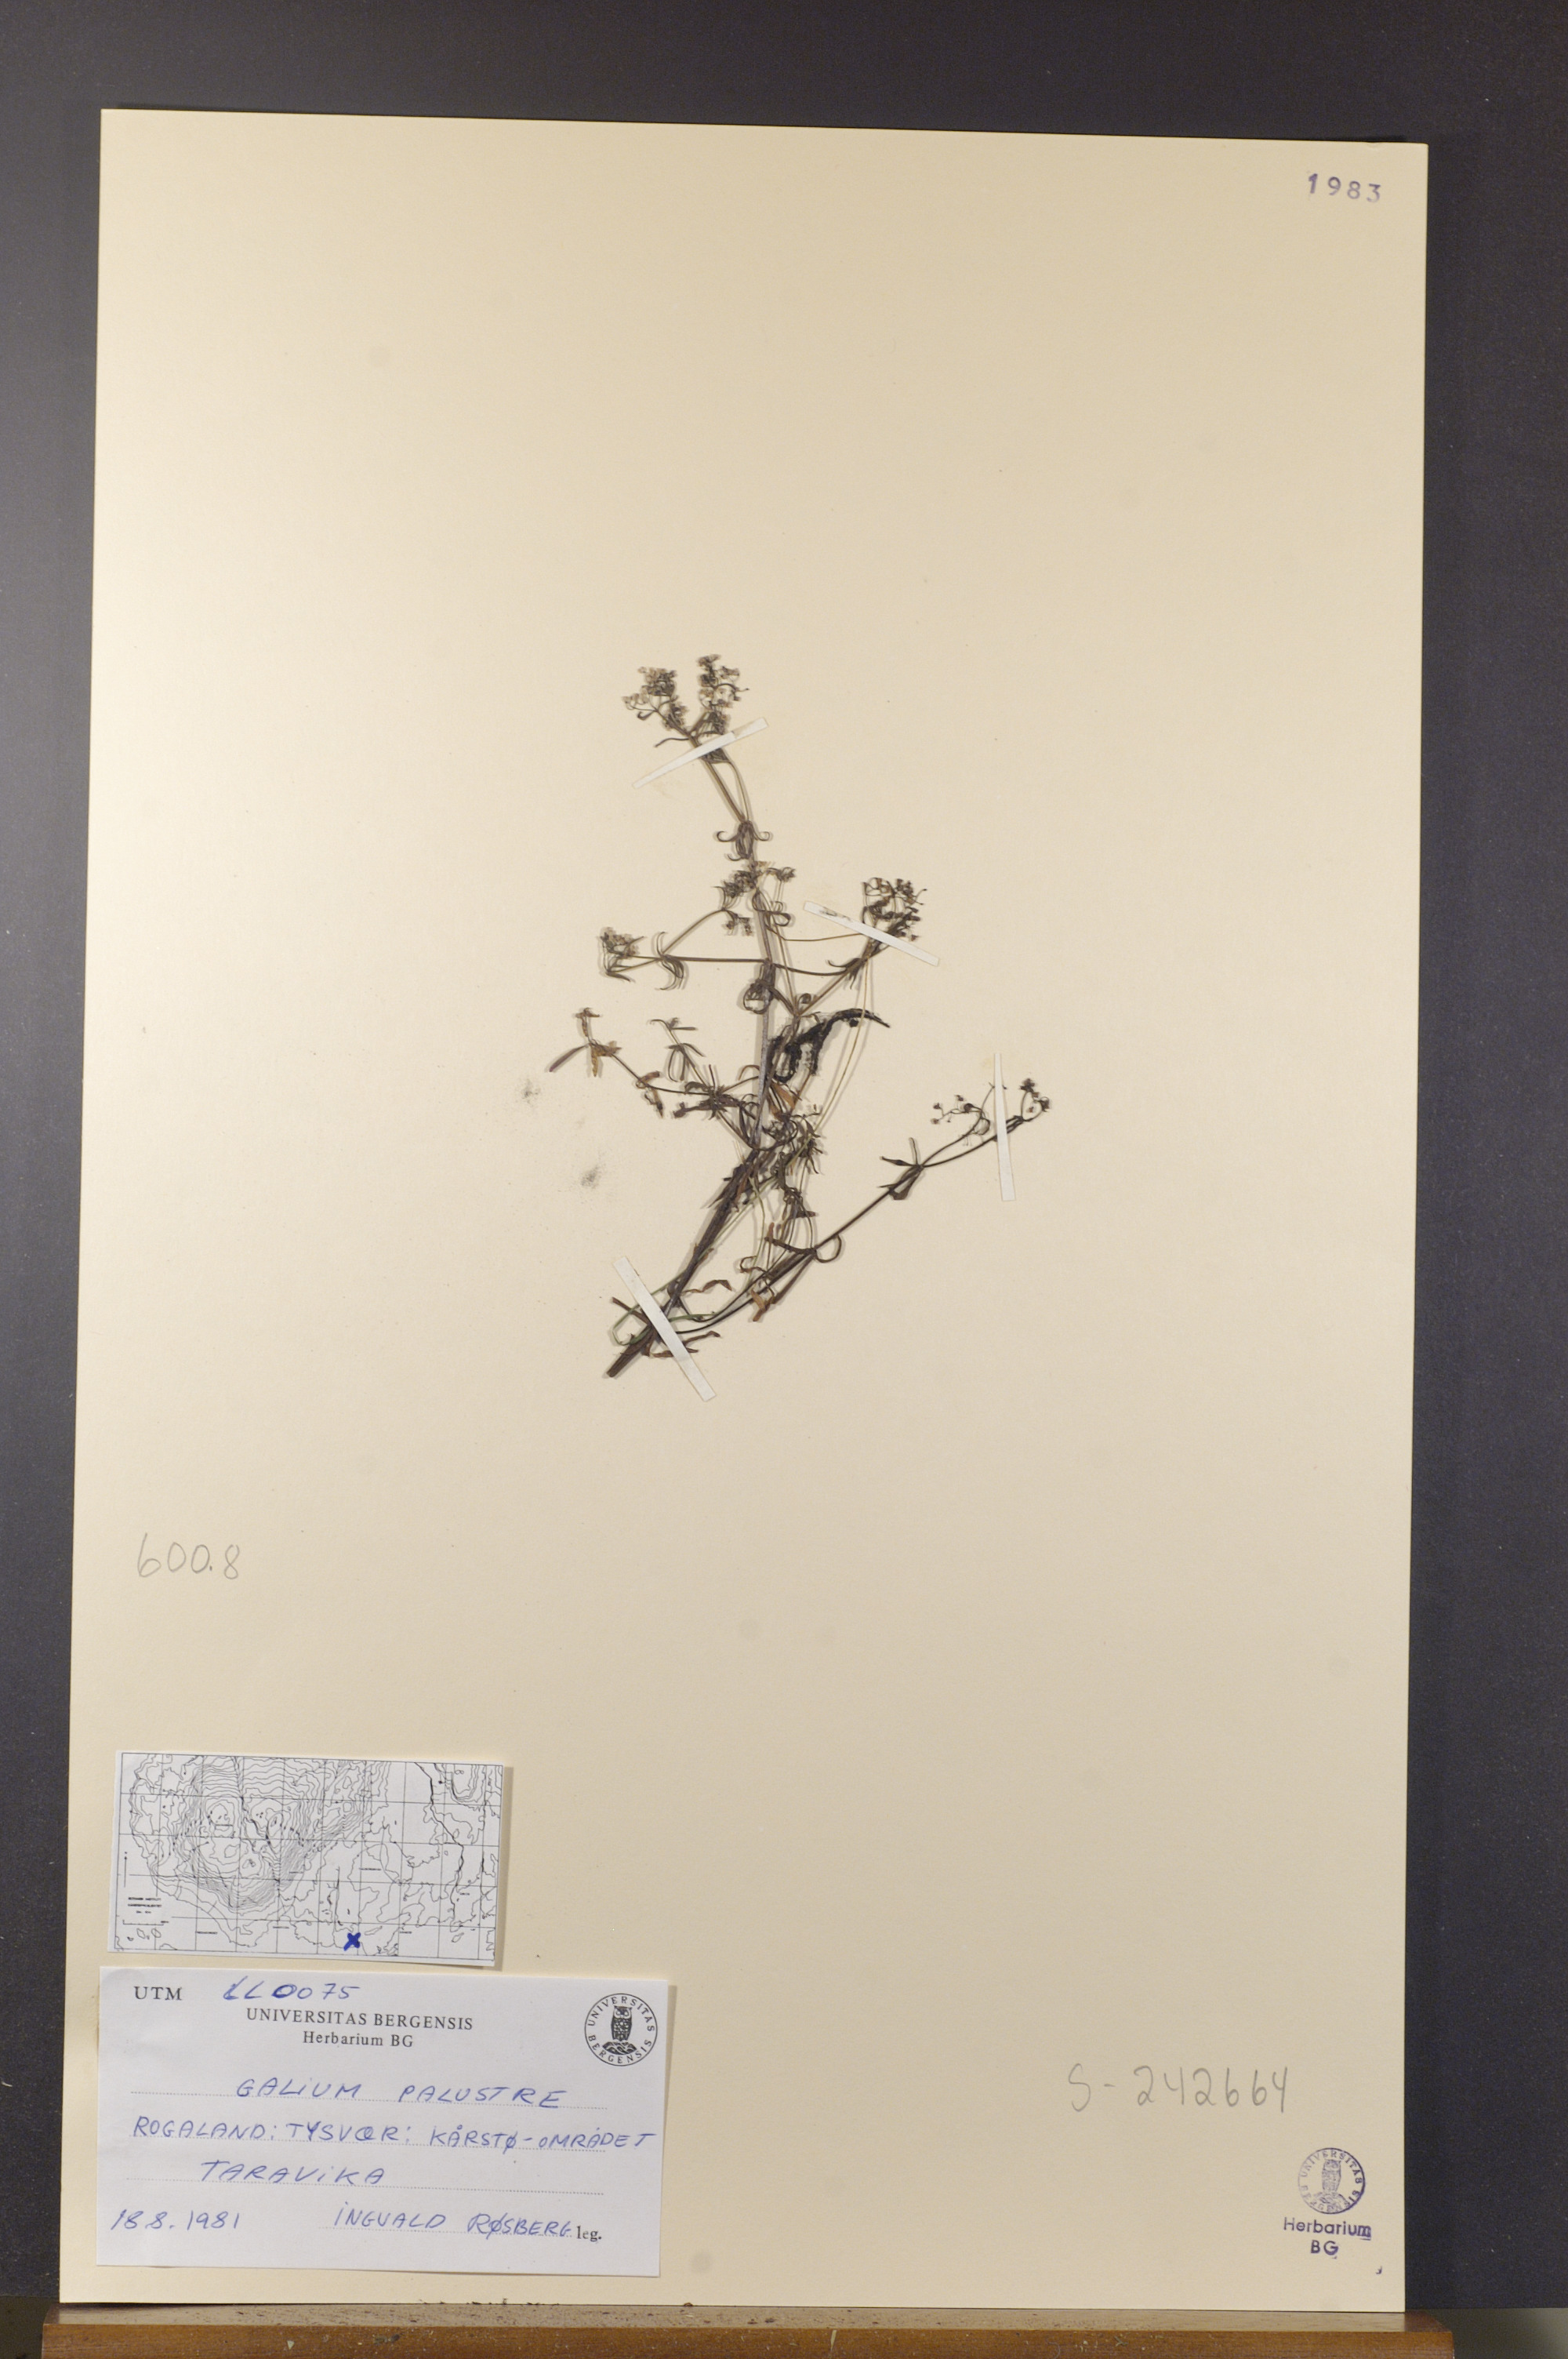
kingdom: Plantae
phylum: Tracheophyta
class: Magnoliopsida
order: Gentianales
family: Rubiaceae
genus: Galium
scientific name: Galium palustre
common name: Common marsh-bedstraw
